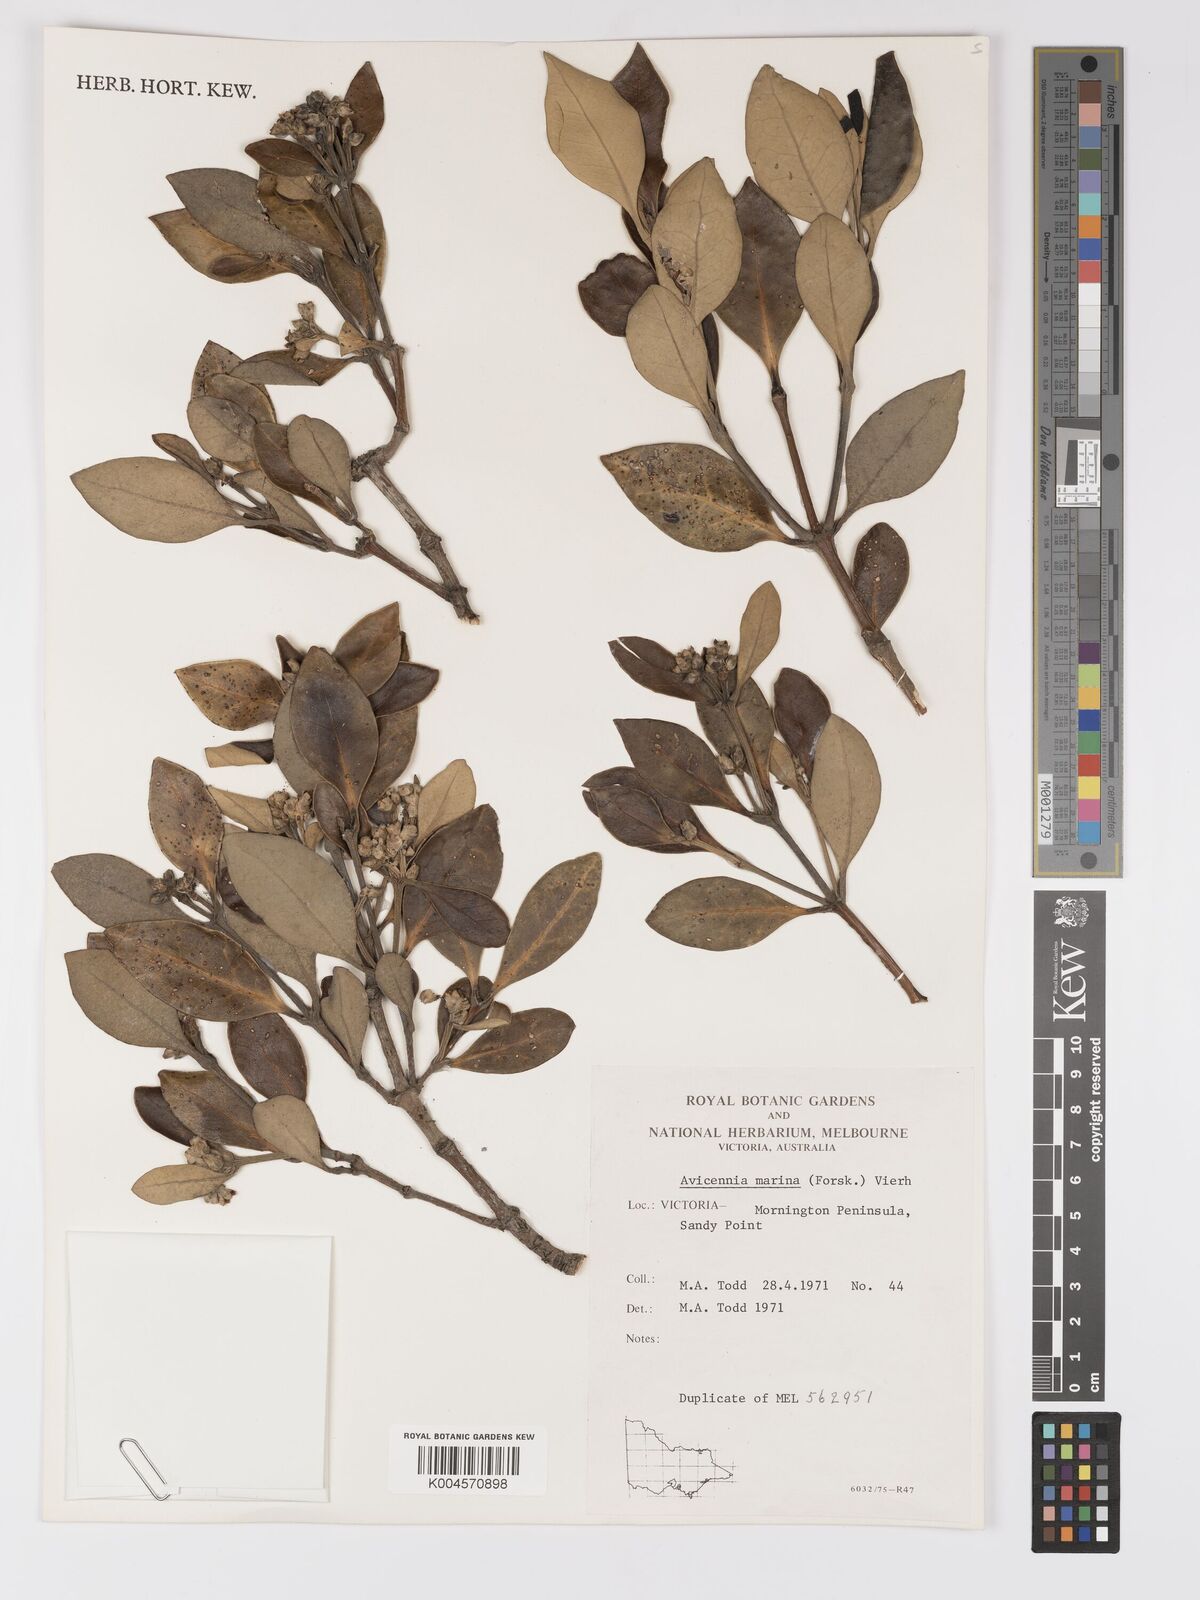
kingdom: Plantae
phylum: Tracheophyta
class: Magnoliopsida
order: Lamiales
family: Acanthaceae
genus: Avicennia
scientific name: Avicennia marina
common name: Gray mangrove
